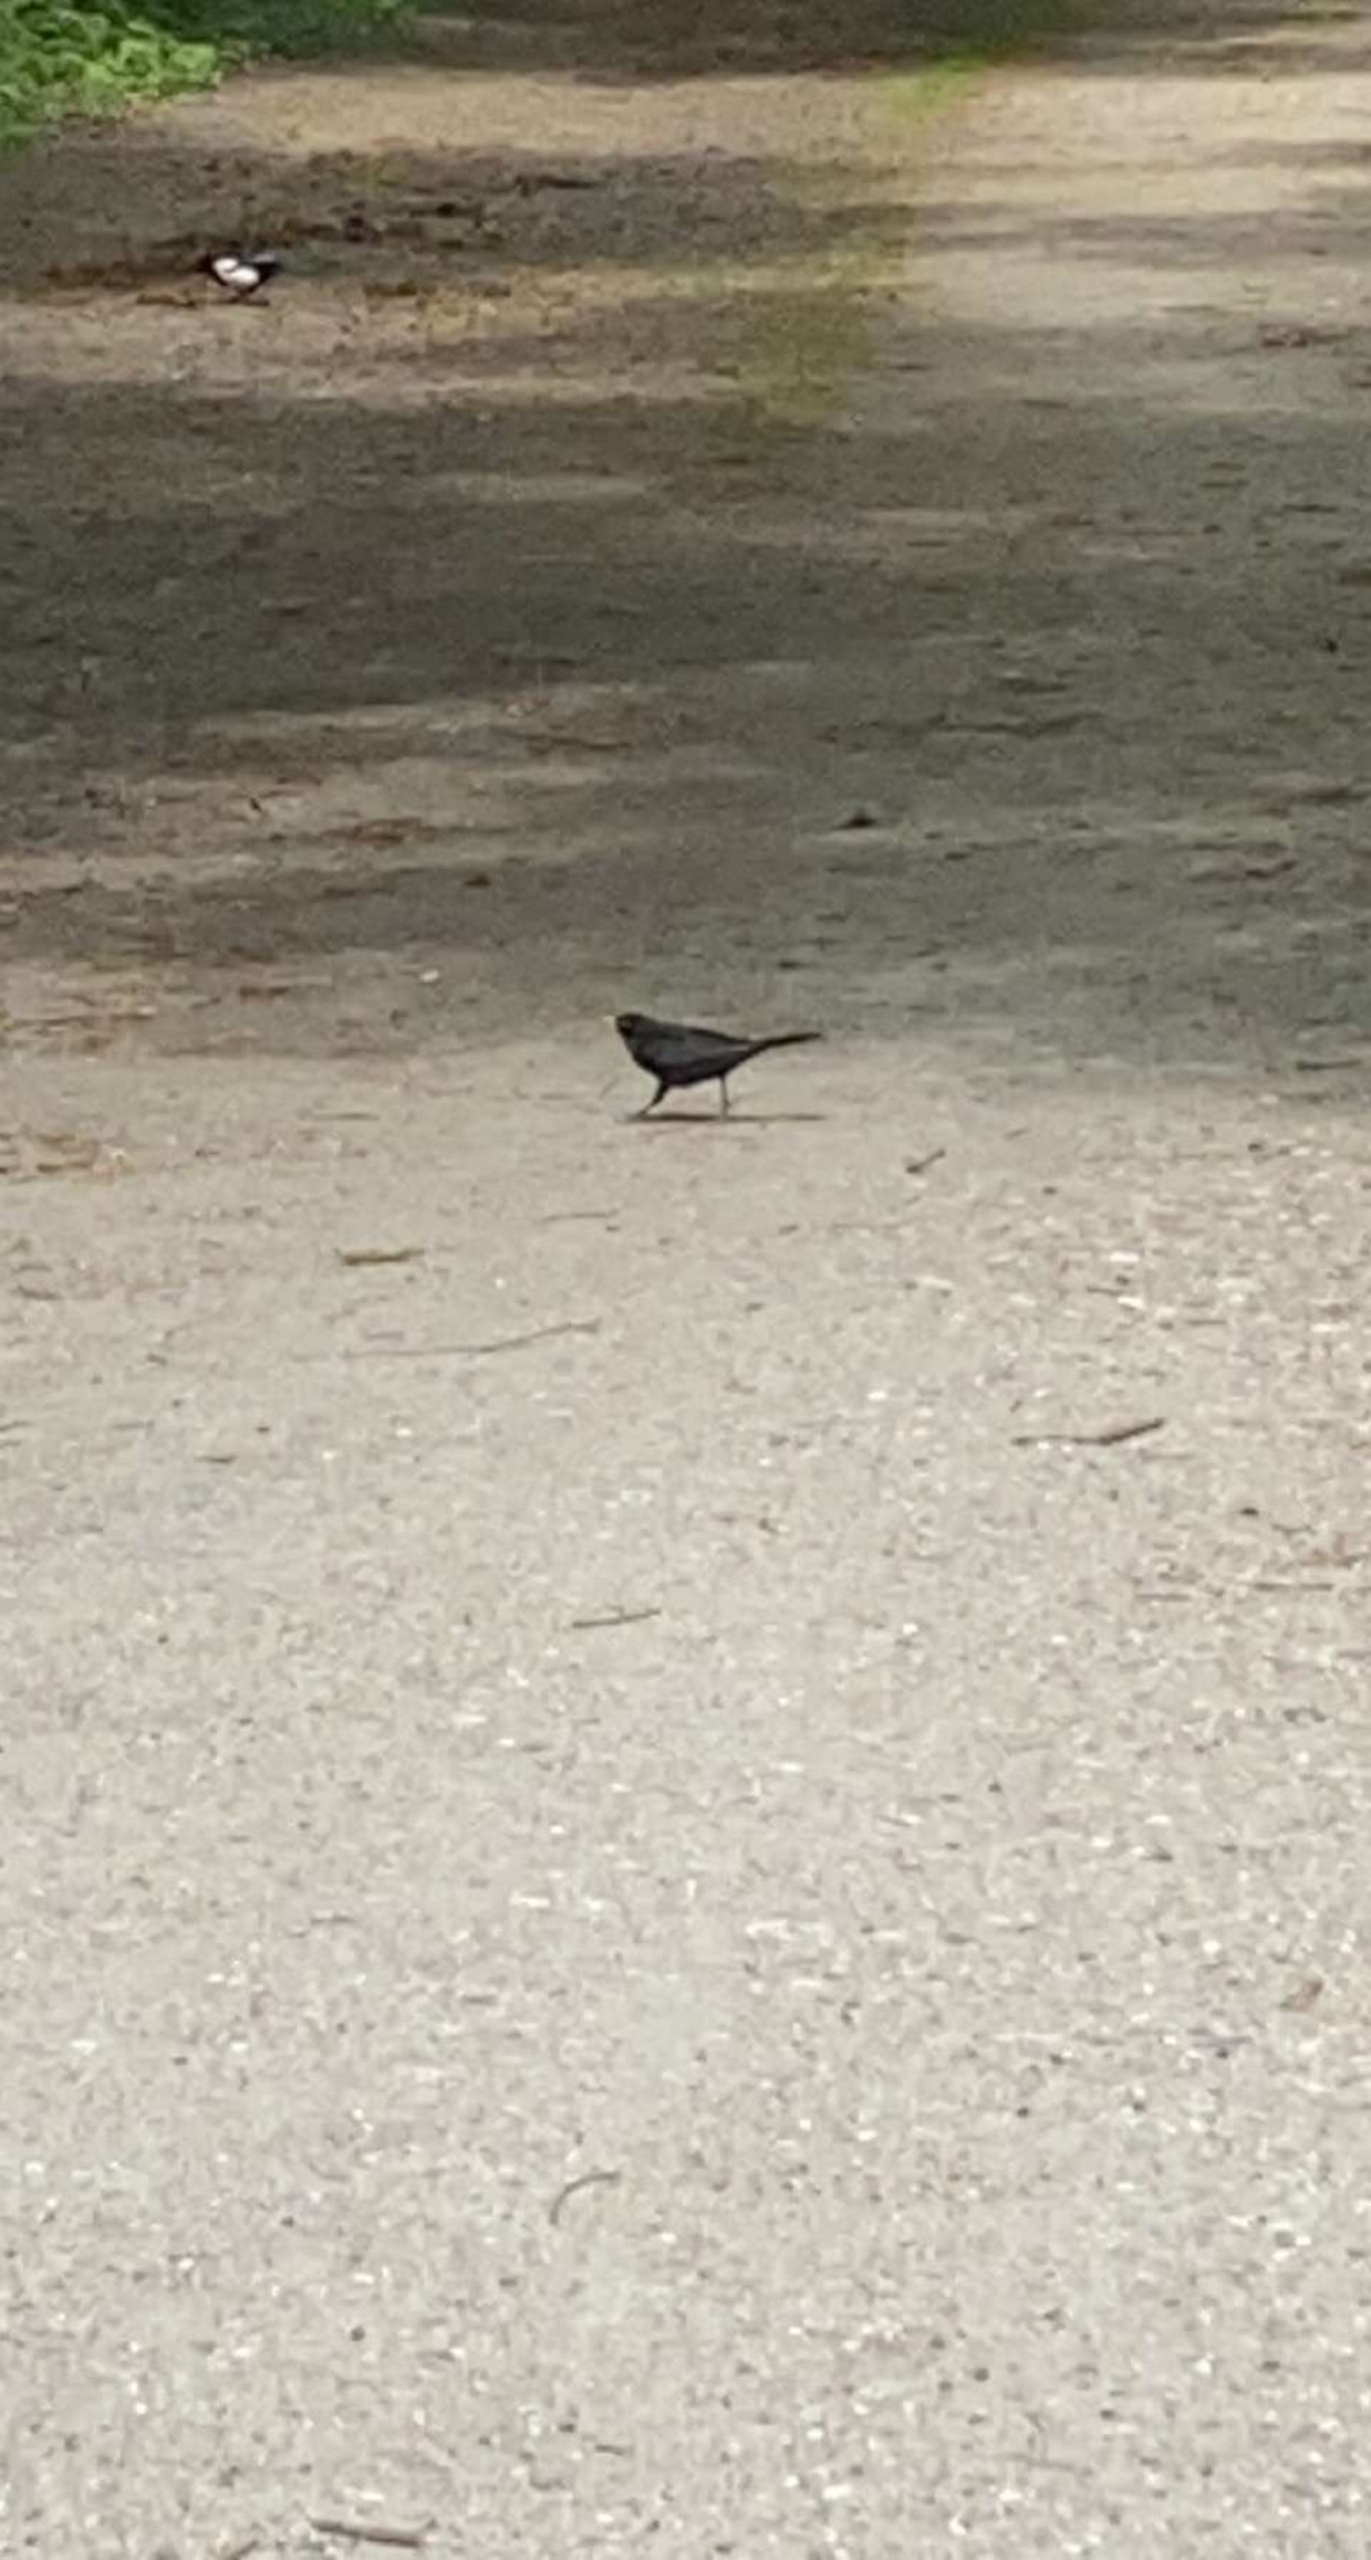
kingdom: Animalia
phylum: Chordata
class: Aves
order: Passeriformes
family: Turdidae
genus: Turdus
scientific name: Turdus merula
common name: Solsort
